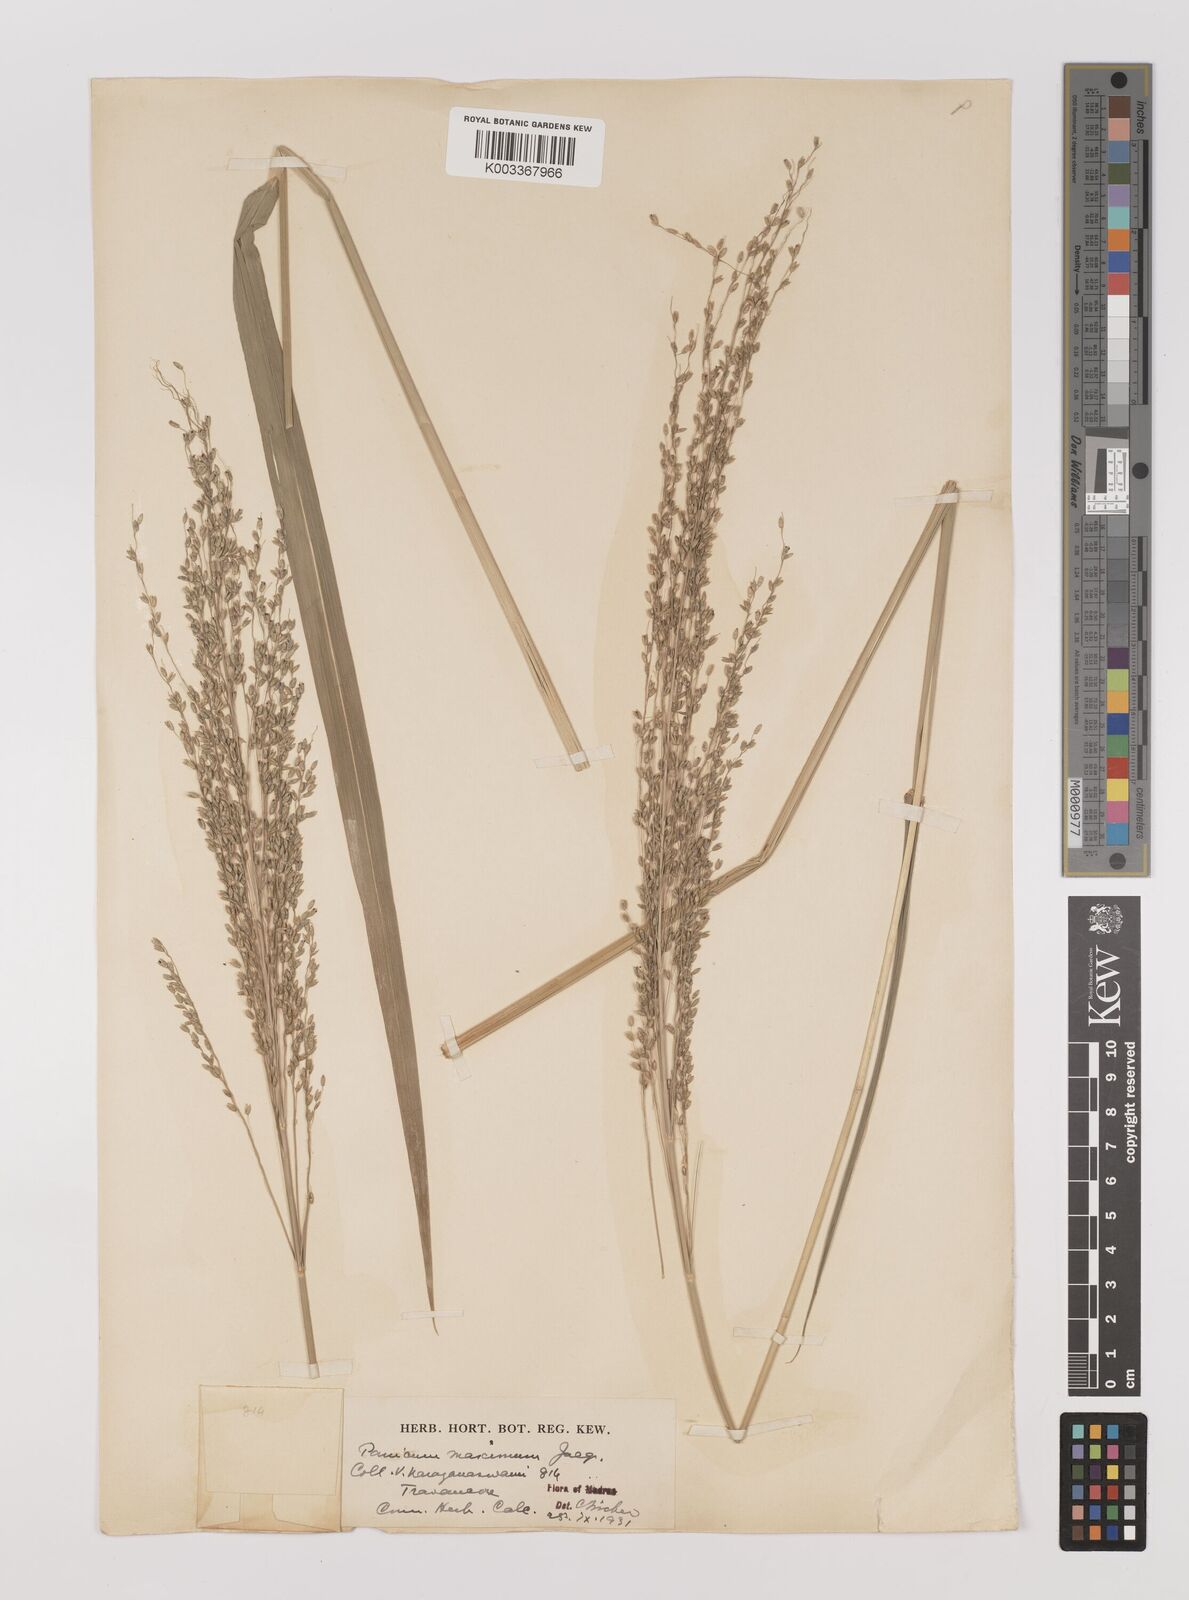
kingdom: Plantae
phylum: Tracheophyta
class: Liliopsida
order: Poales
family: Poaceae
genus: Megathyrsus
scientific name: Megathyrsus maximus
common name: Guineagrass
